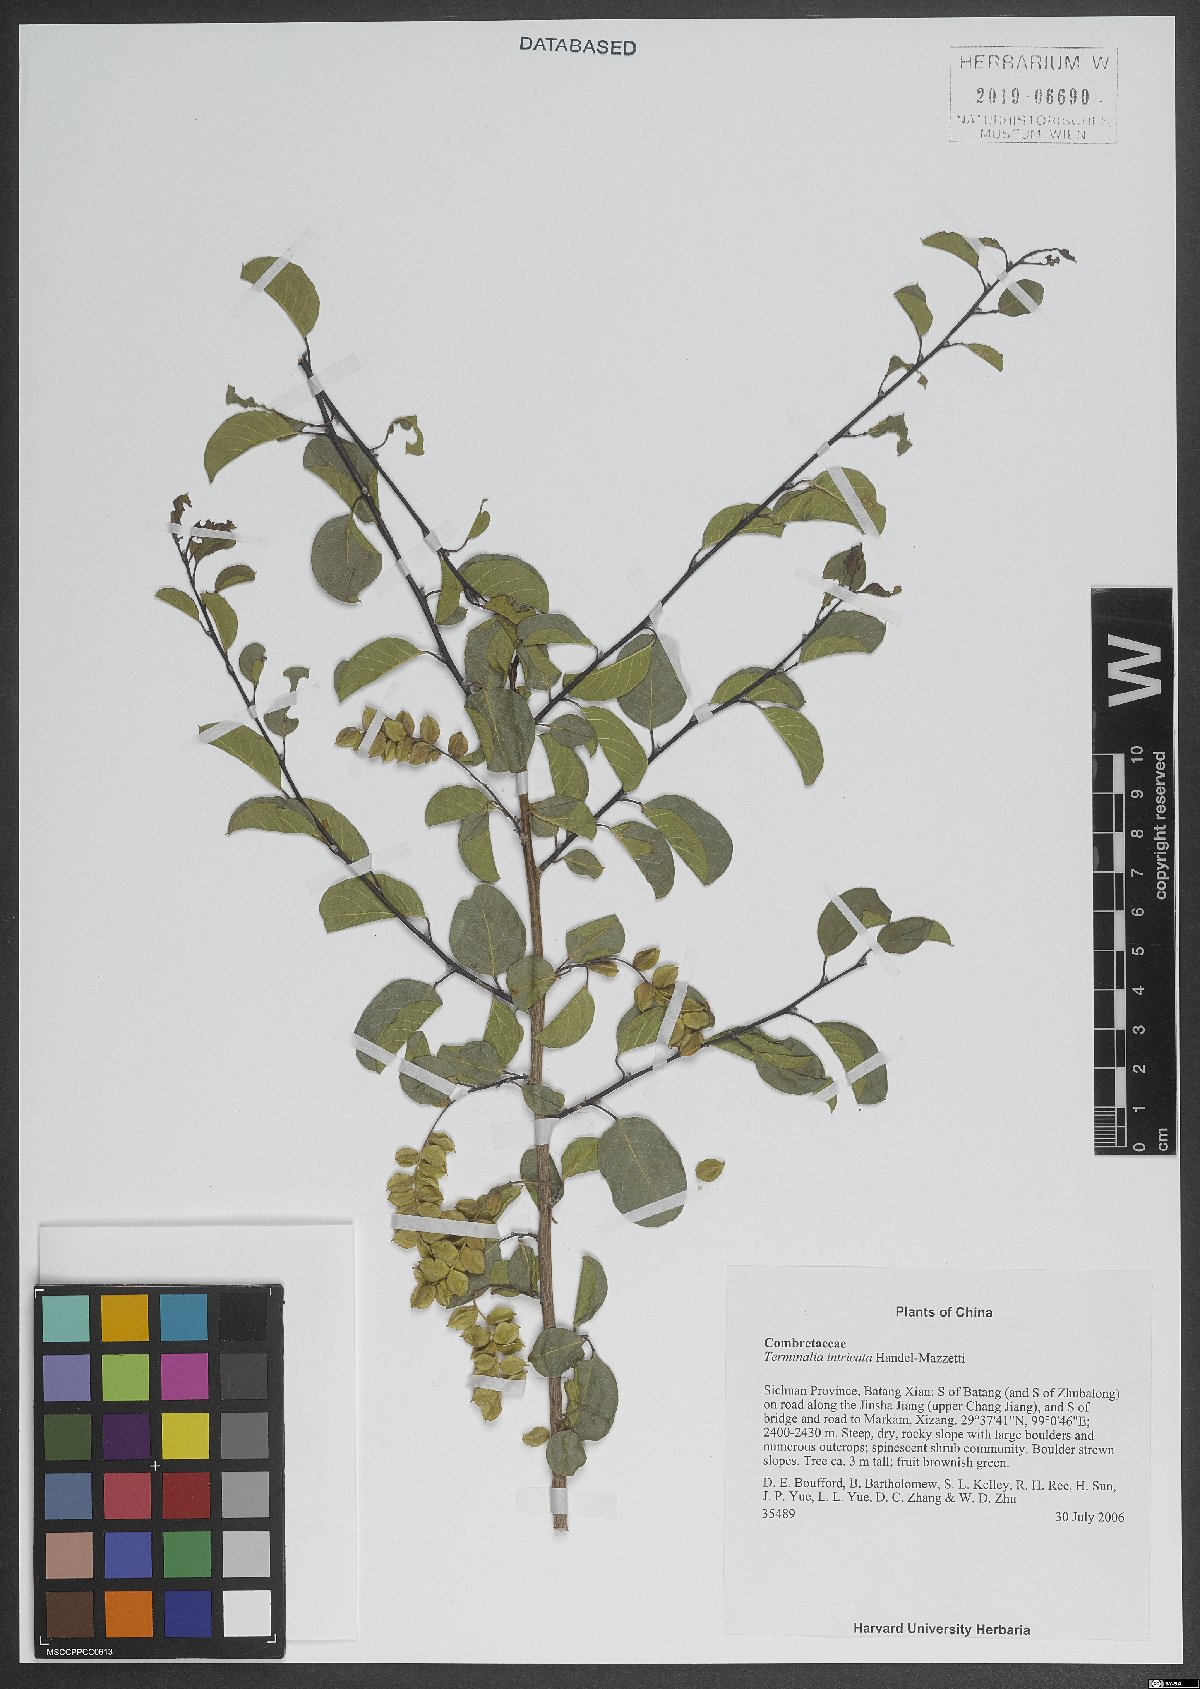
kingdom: Plantae
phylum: Tracheophyta
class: Magnoliopsida
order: Myrtales
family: Combretaceae
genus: Terminalia
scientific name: Terminalia franchetii
